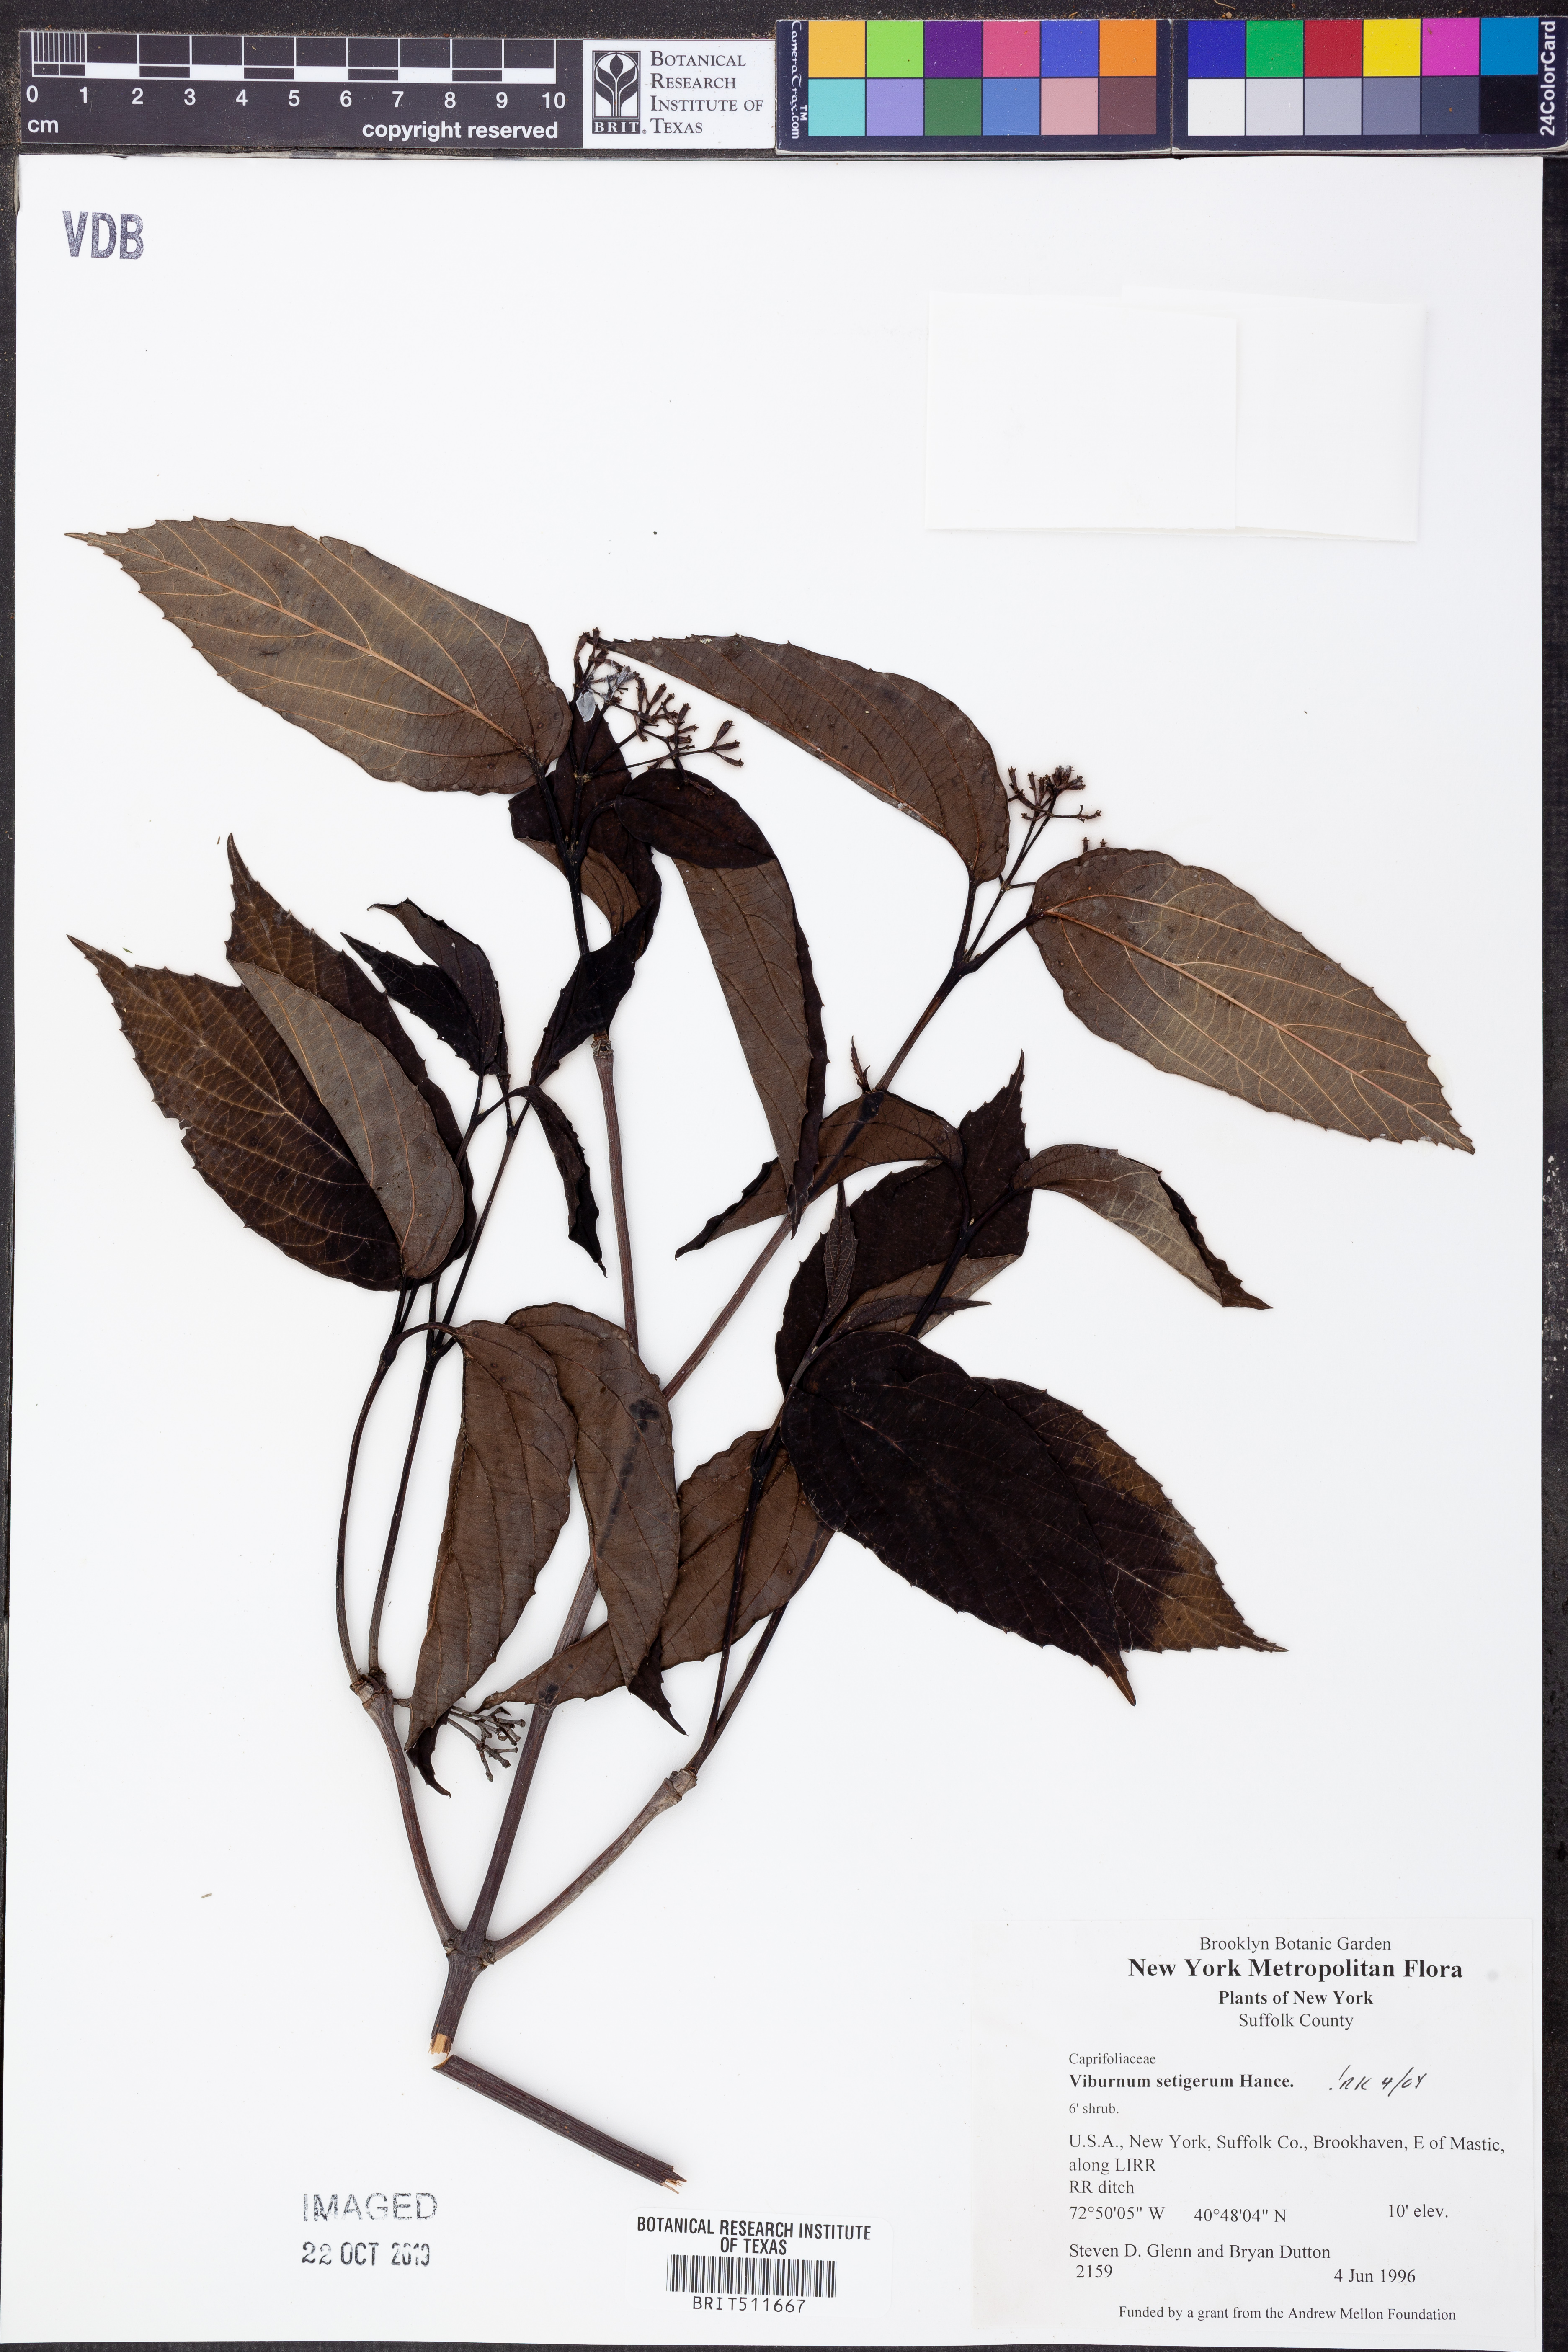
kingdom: Plantae
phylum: Tracheophyta
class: Magnoliopsida
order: Dipsacales
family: Viburnaceae
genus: Viburnum
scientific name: Viburnum setigerum
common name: Tea viburnum
